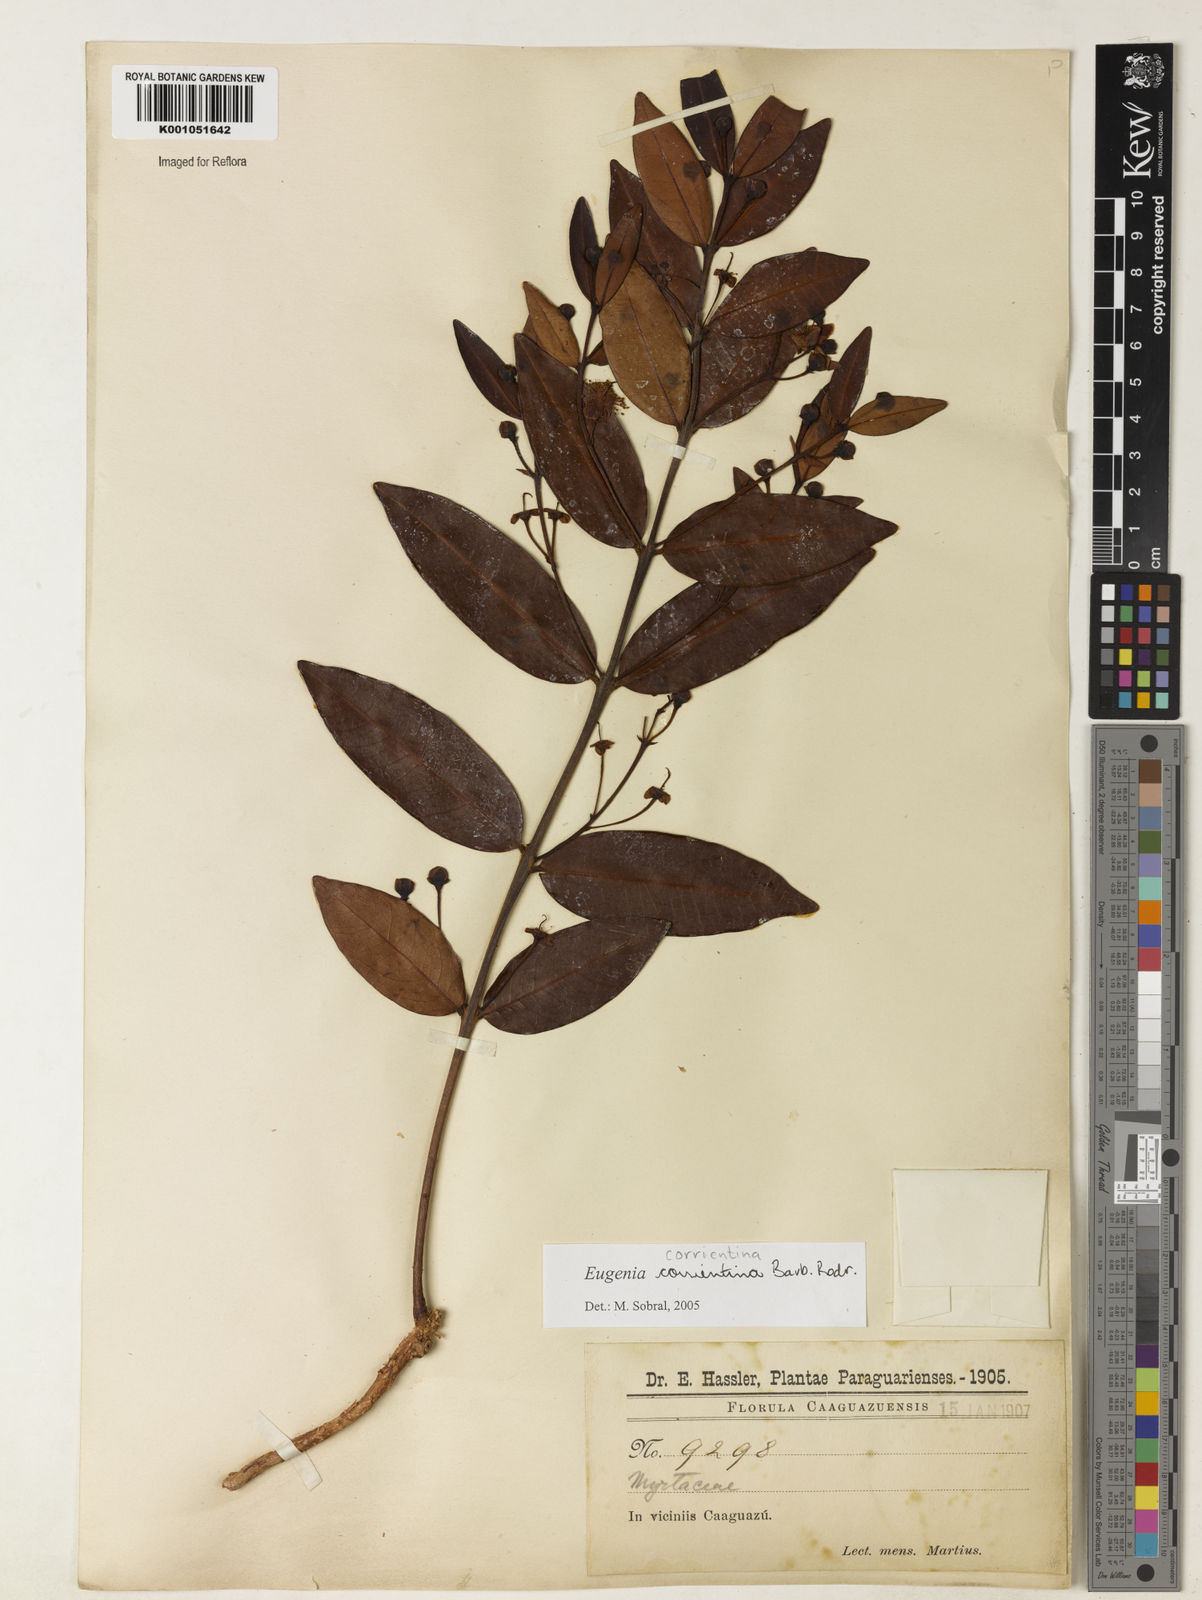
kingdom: Plantae
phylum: Tracheophyta
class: Magnoliopsida
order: Myrtales
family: Myrtaceae
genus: Eugenia
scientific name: Eugenia corrientina
